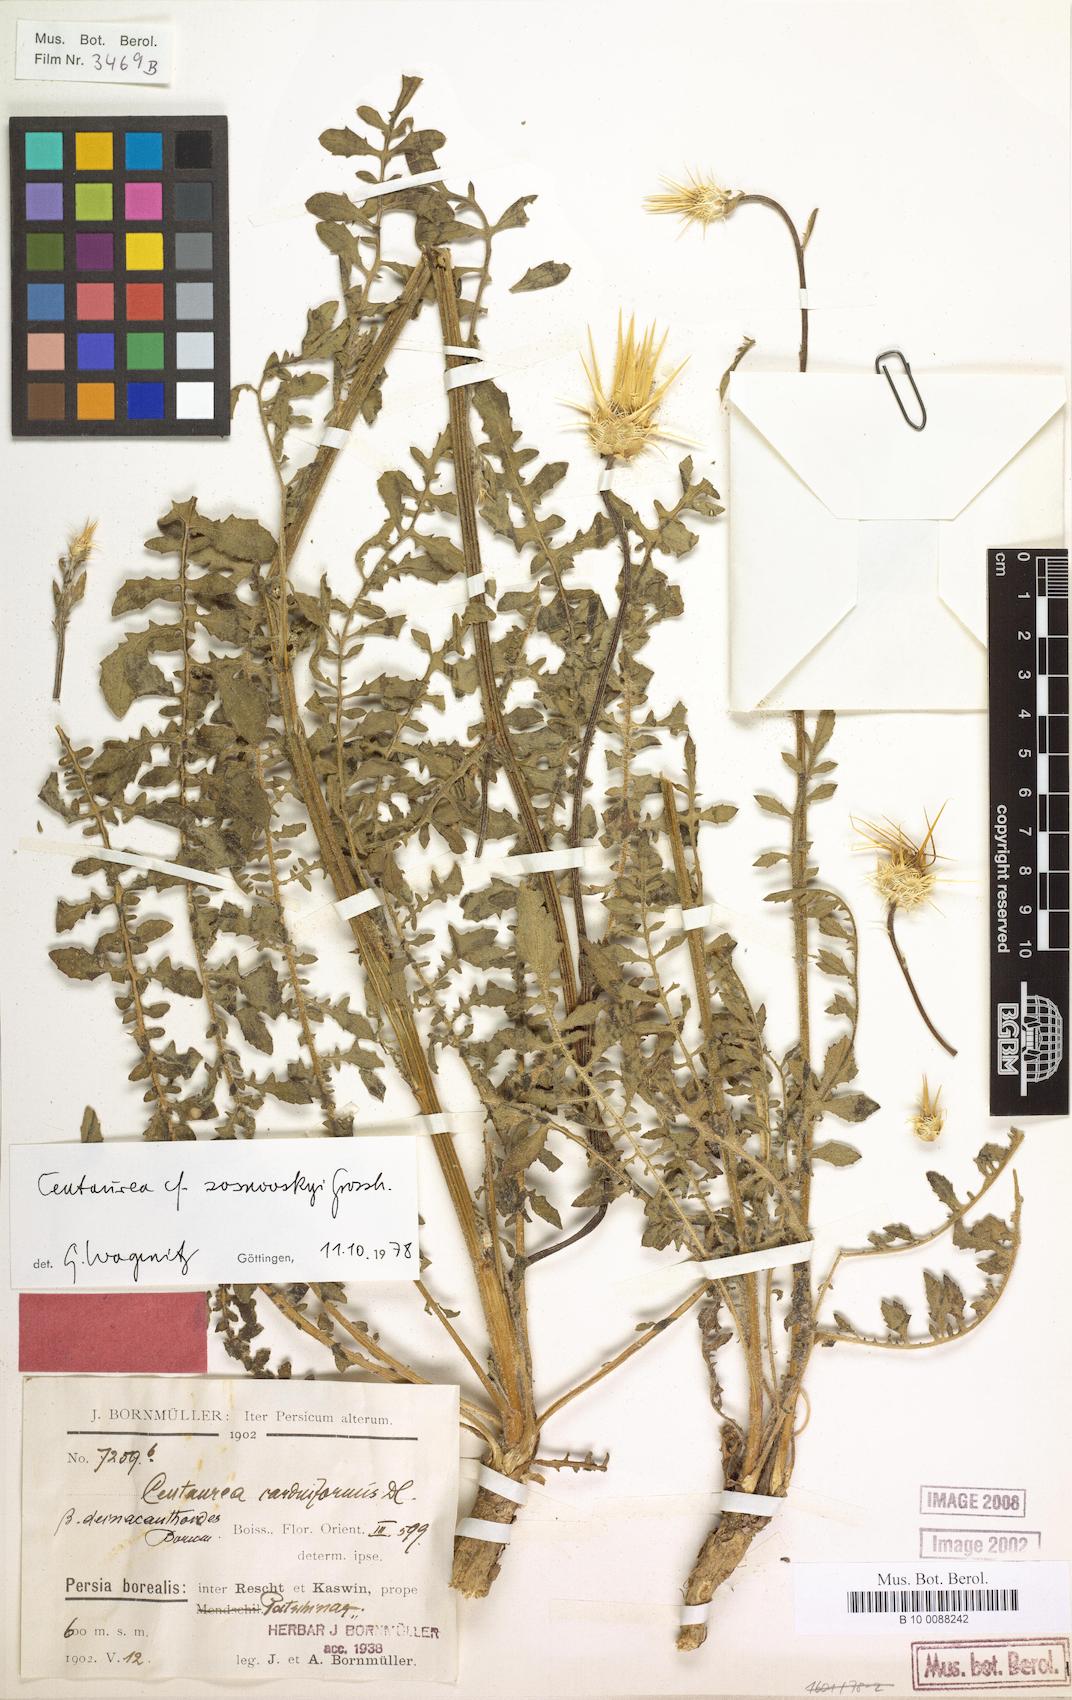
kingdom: Plantae
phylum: Tracheophyta
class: Magnoliopsida
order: Asterales
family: Asteraceae
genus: Centaurea
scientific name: Centaurea reflexa
